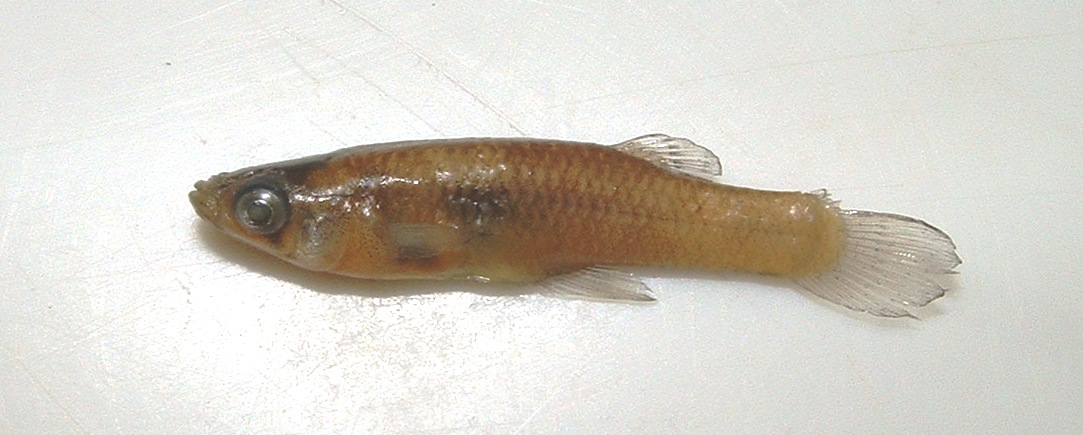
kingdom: Animalia
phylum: Chordata
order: Cyprinodontiformes
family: Poeciliidae
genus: Gambusia
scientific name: Gambusia affinis
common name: Mosquitofish
